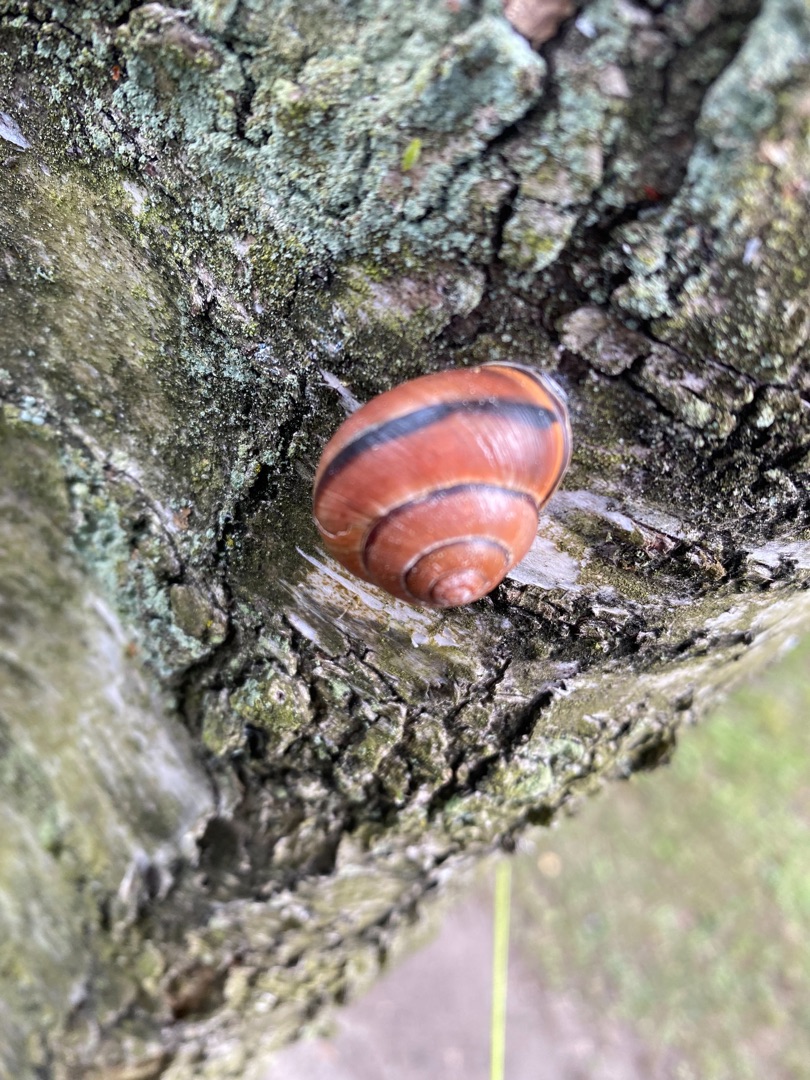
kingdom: Animalia
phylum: Mollusca
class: Gastropoda
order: Stylommatophora
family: Helicidae
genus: Cepaea
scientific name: Cepaea nemoralis
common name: Lundsnegl
